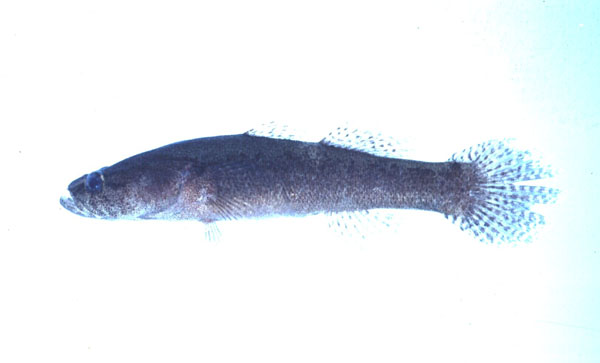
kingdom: Animalia
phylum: Chordata
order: Perciformes
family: Eleotridae
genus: Eleotris
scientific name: Eleotris fusca
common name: Brown gudgeon
